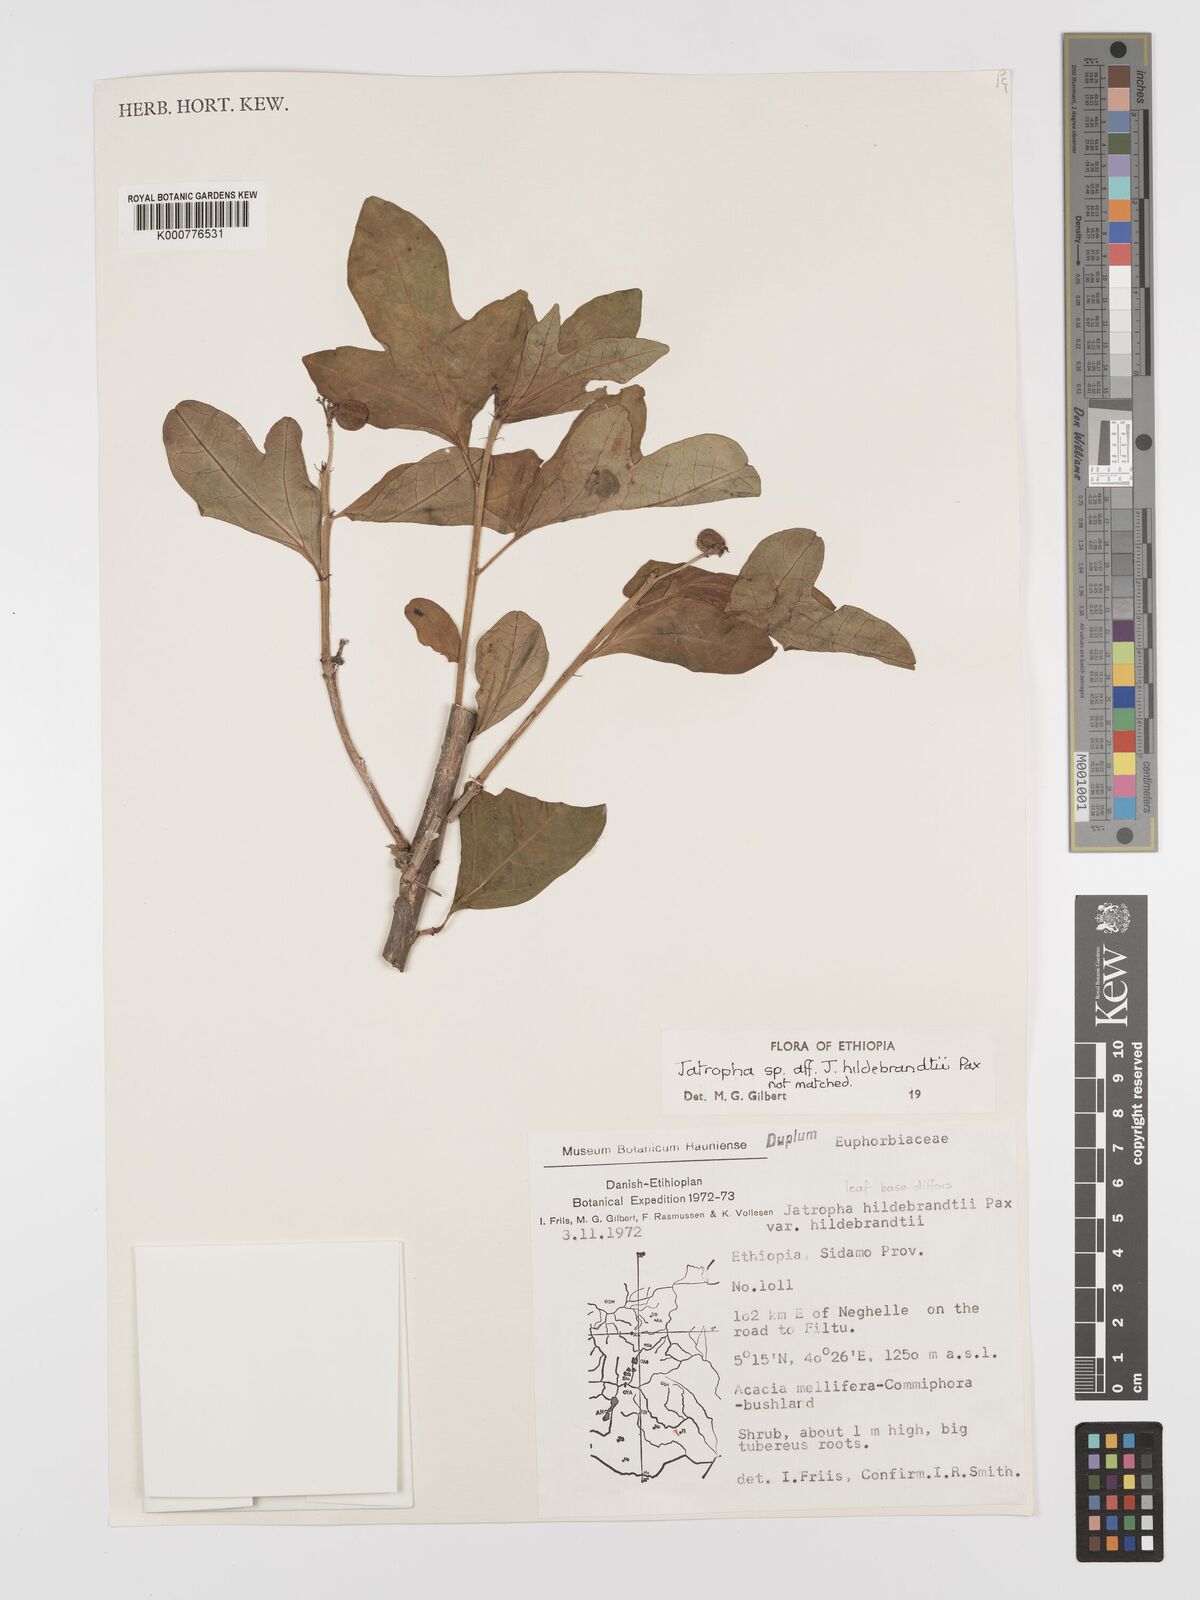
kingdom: Plantae
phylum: Tracheophyta
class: Magnoliopsida
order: Malpighiales
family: Euphorbiaceae
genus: Jatropha
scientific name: Jatropha hildebrandtii
